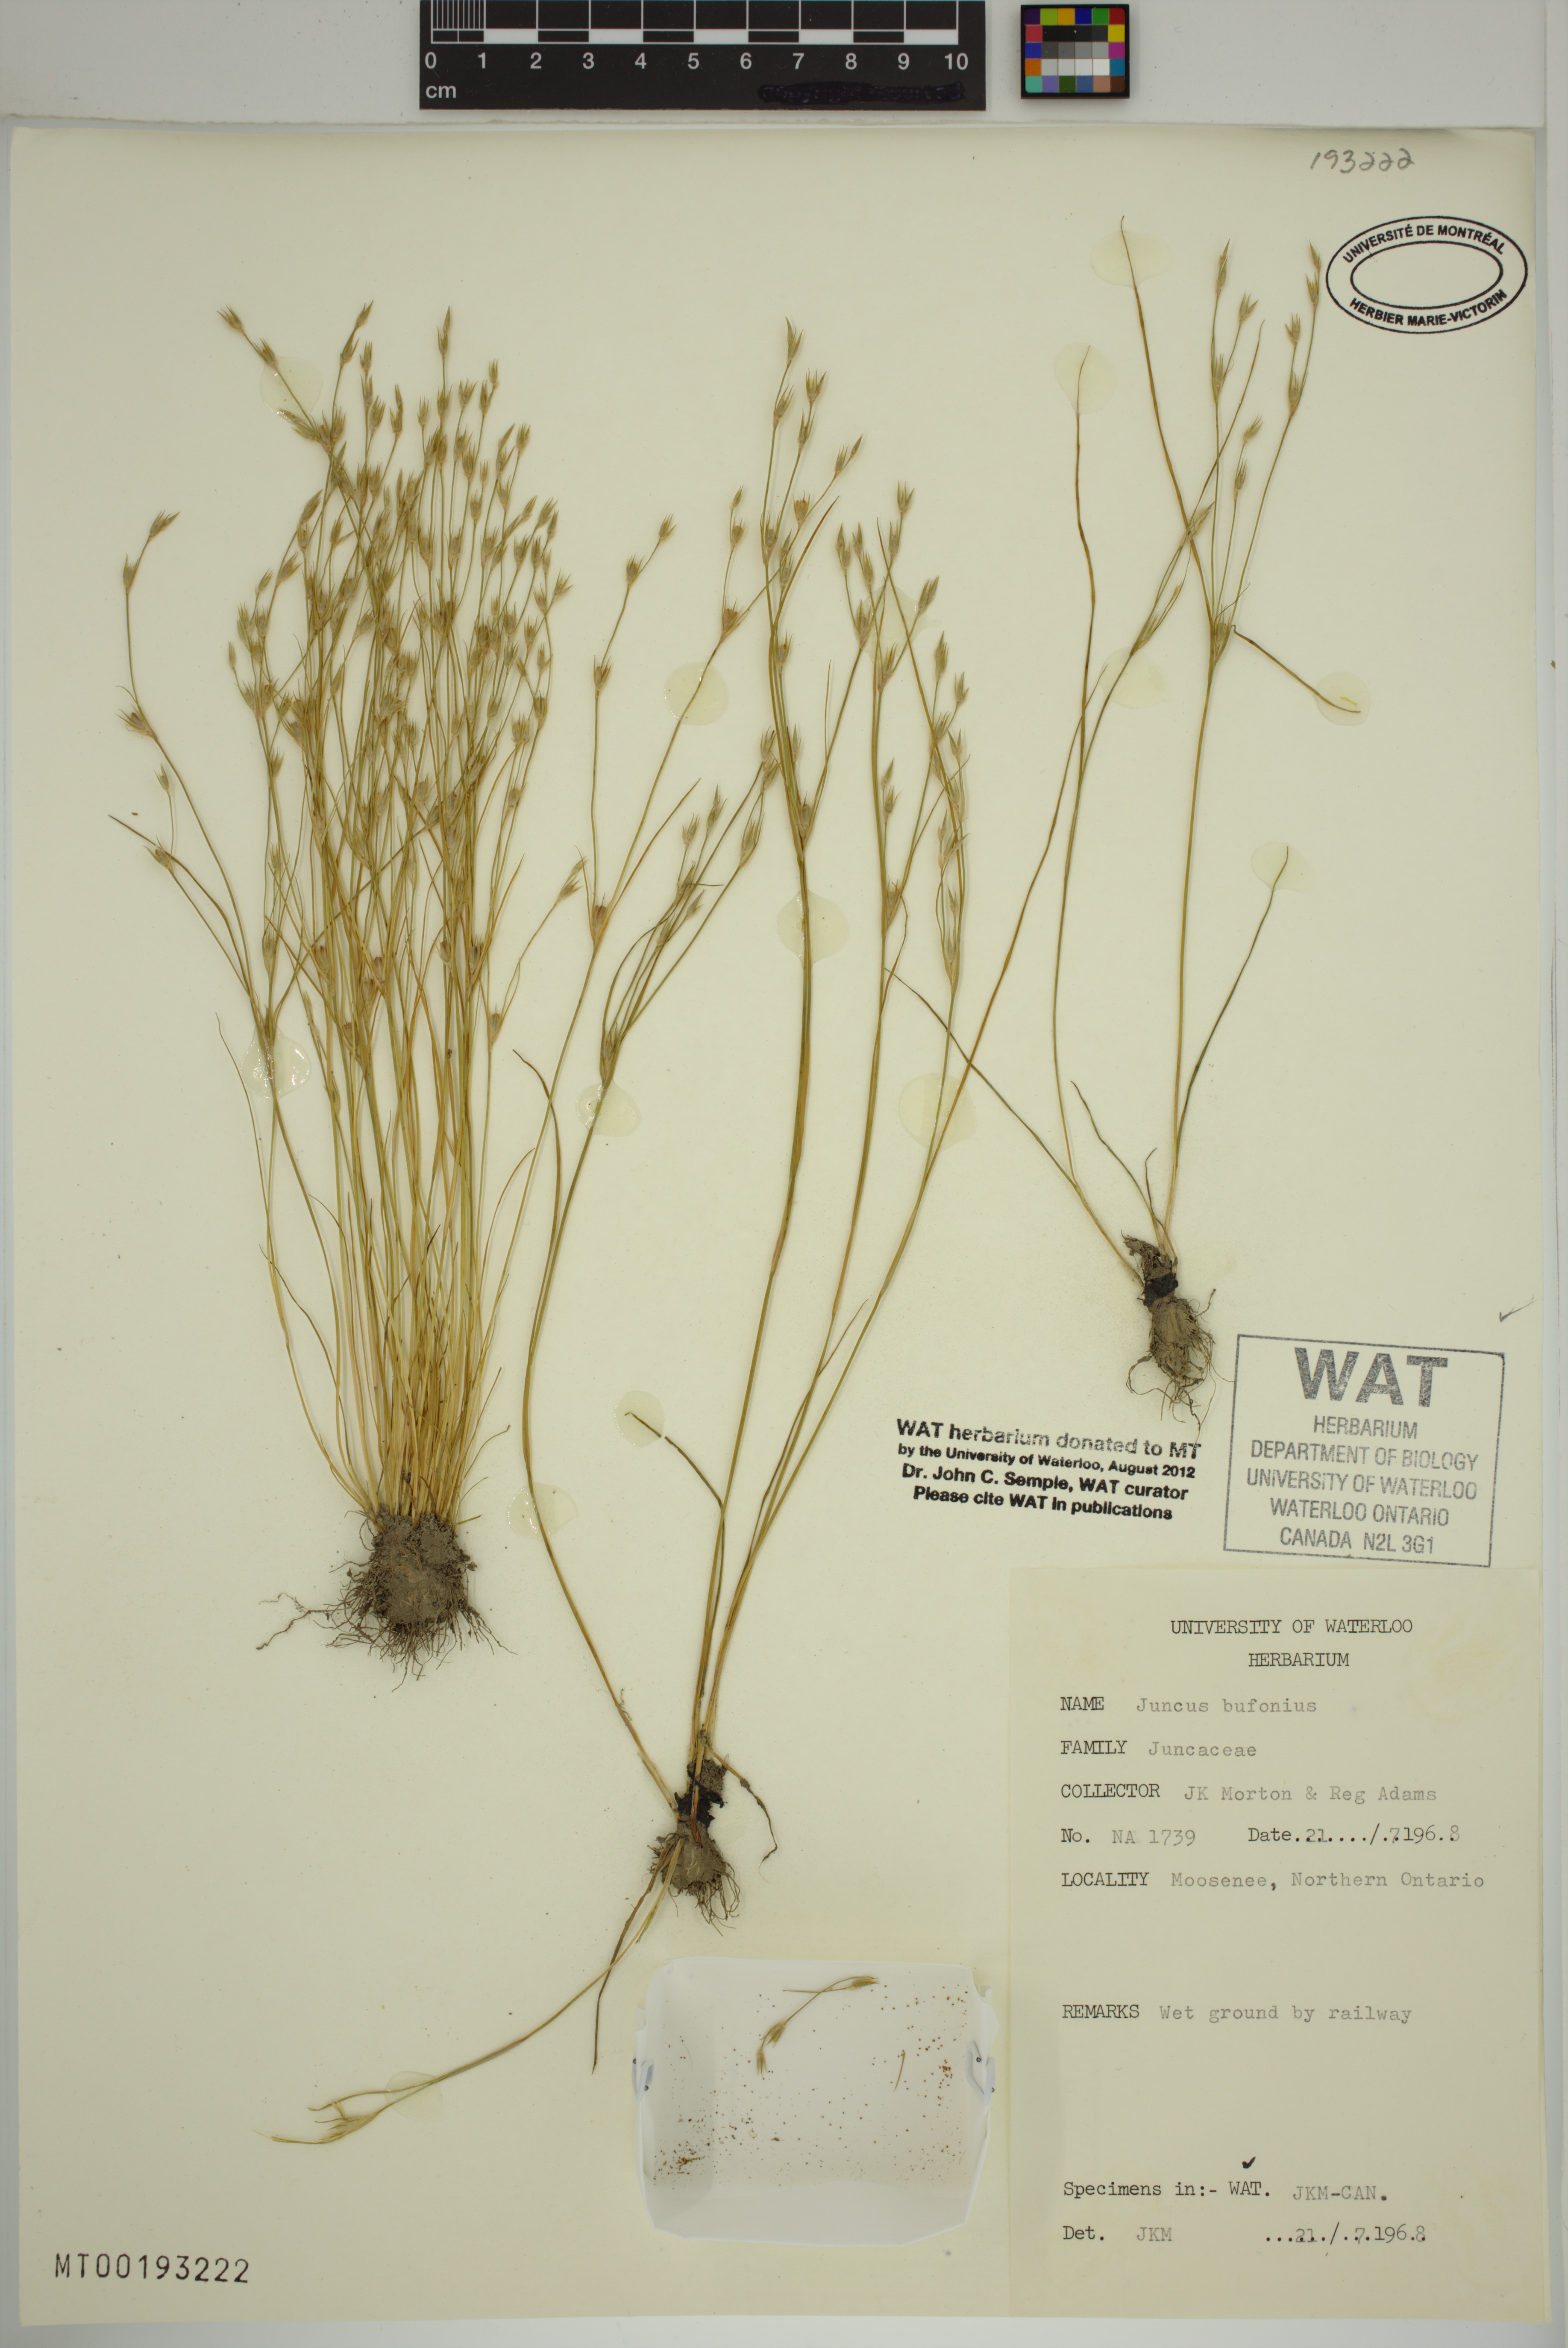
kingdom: Plantae
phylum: Tracheophyta
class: Liliopsida
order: Poales
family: Juncaceae
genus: Juncus
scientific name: Juncus bufonius
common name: Toad rush
